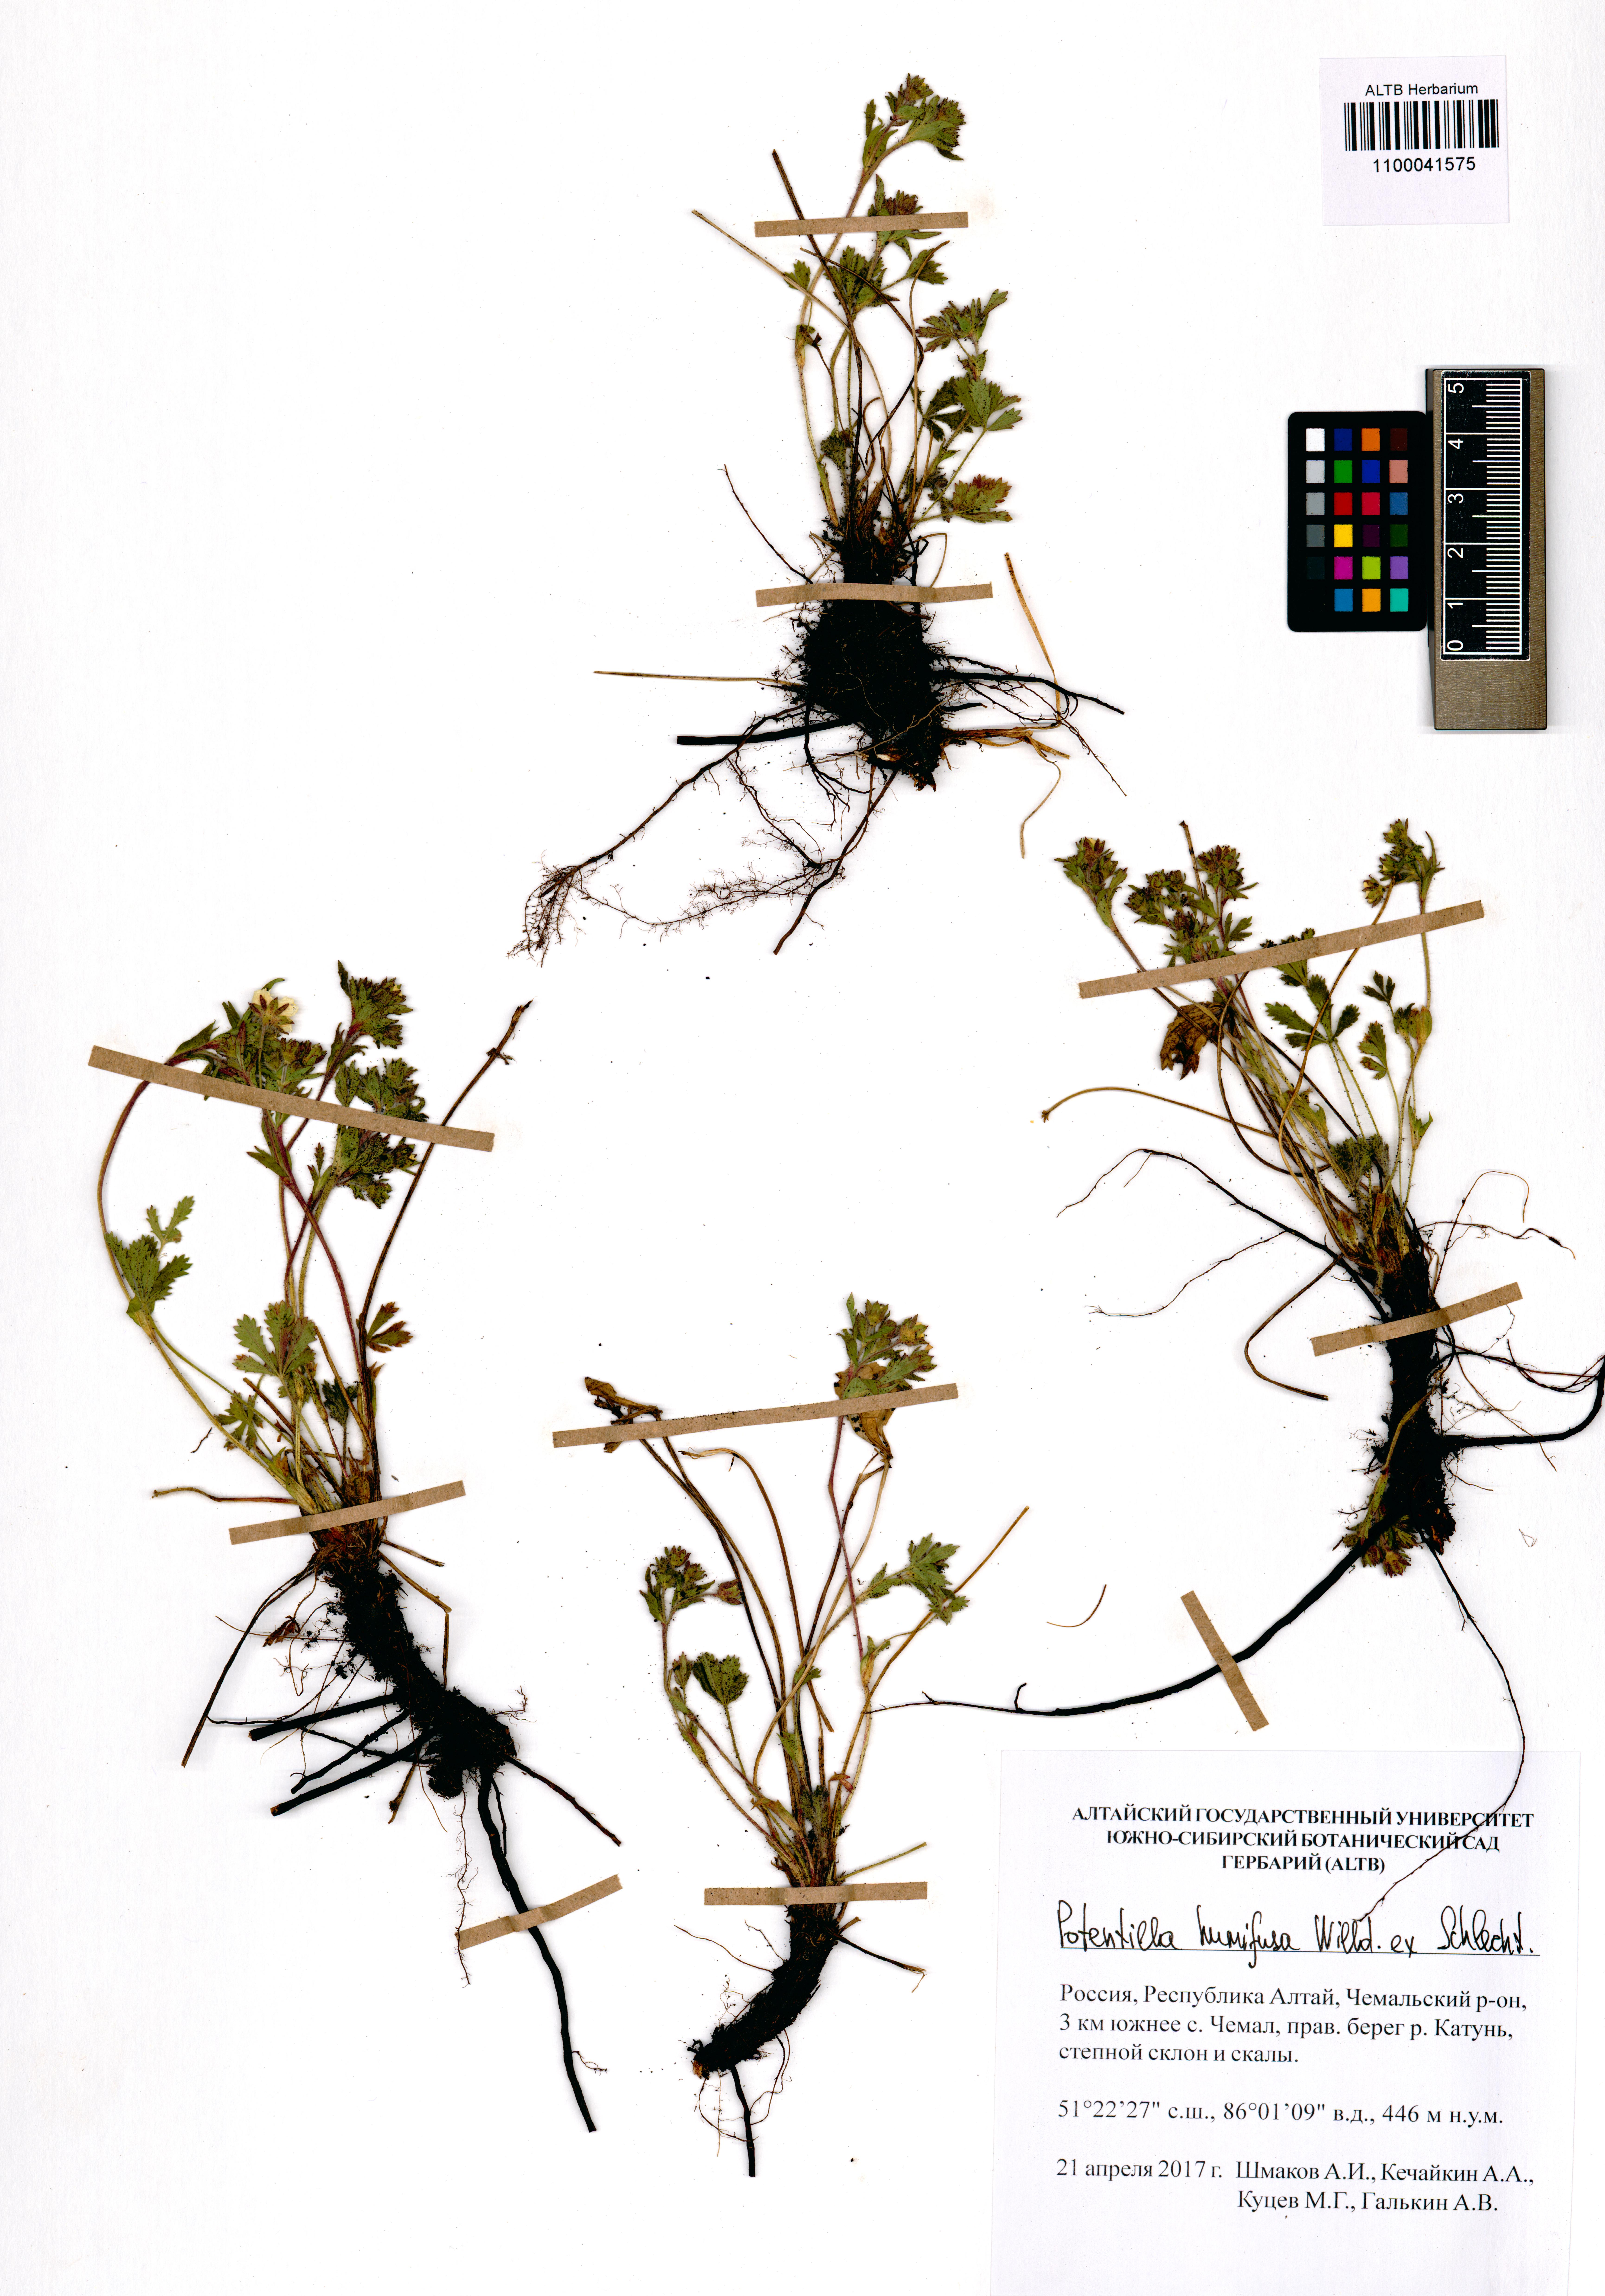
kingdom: Plantae
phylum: Tracheophyta
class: Magnoliopsida
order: Rosales
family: Rosaceae
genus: Potentilla
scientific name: Potentilla humifusa
